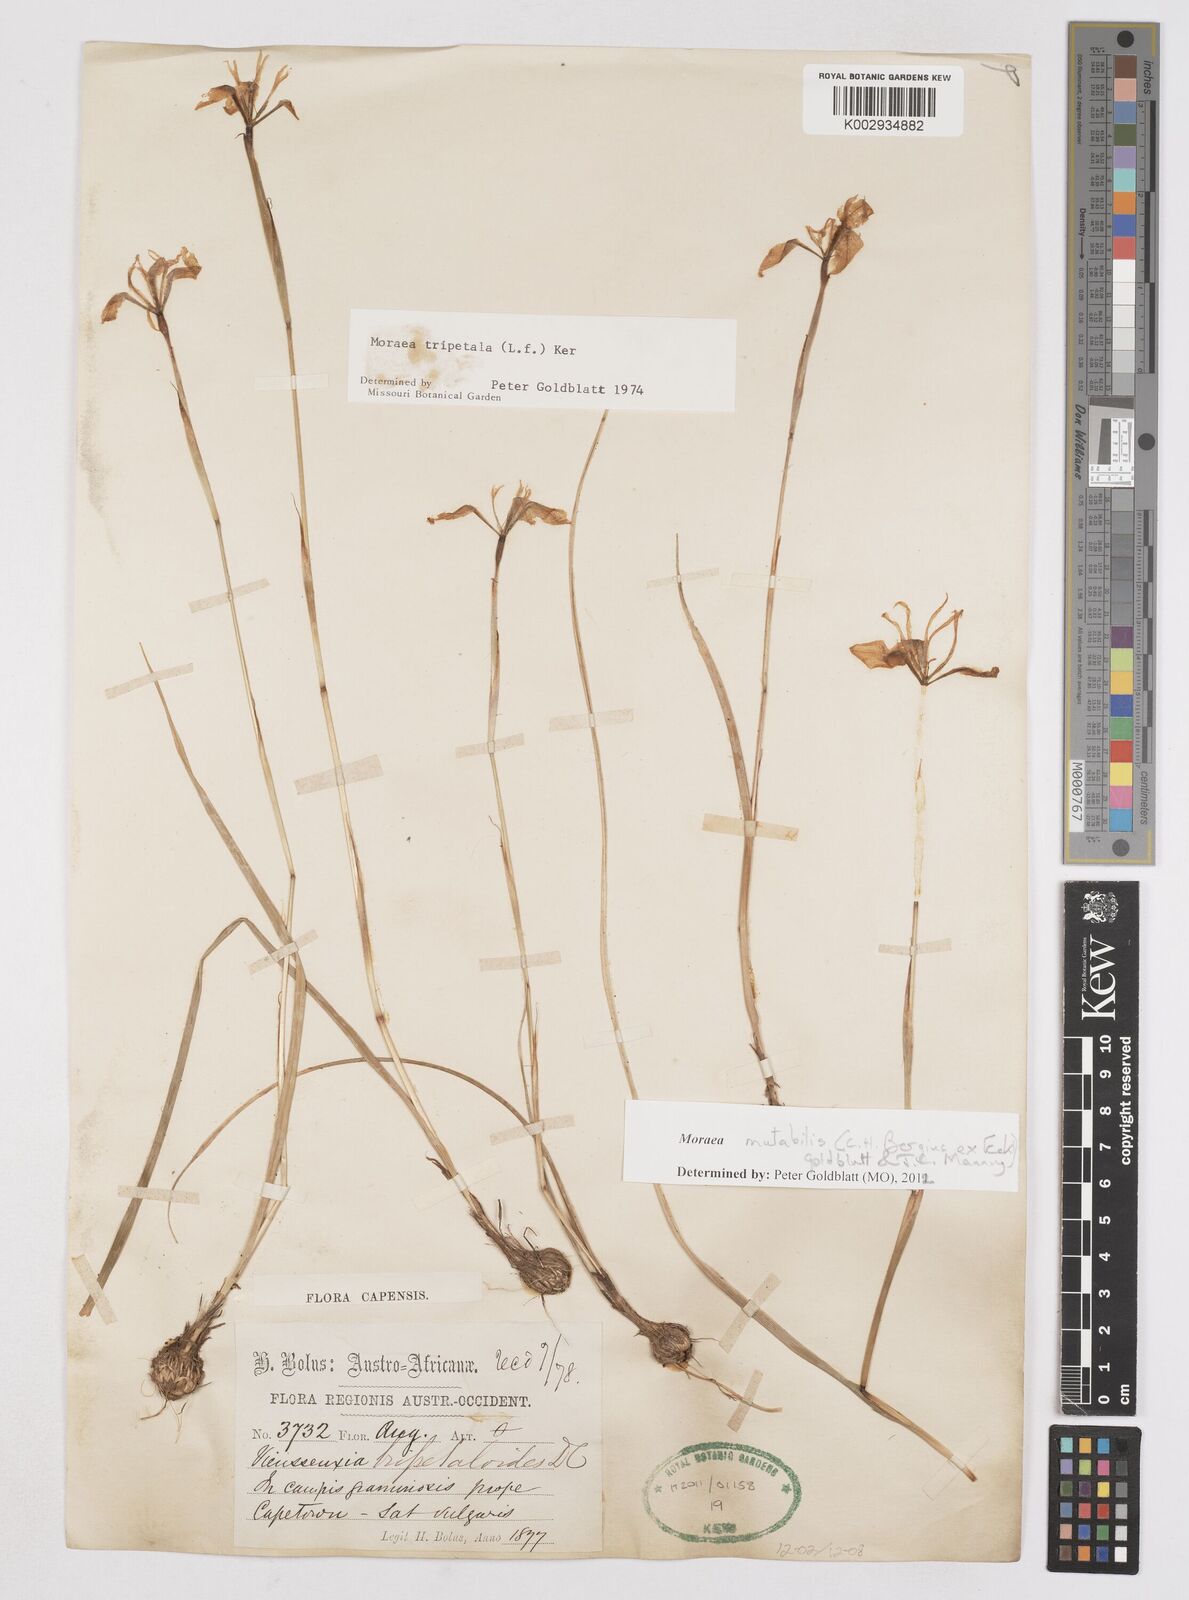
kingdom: Plantae
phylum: Tracheophyta
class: Liliopsida
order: Asparagales
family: Iridaceae
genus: Moraea
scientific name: Moraea punctata
